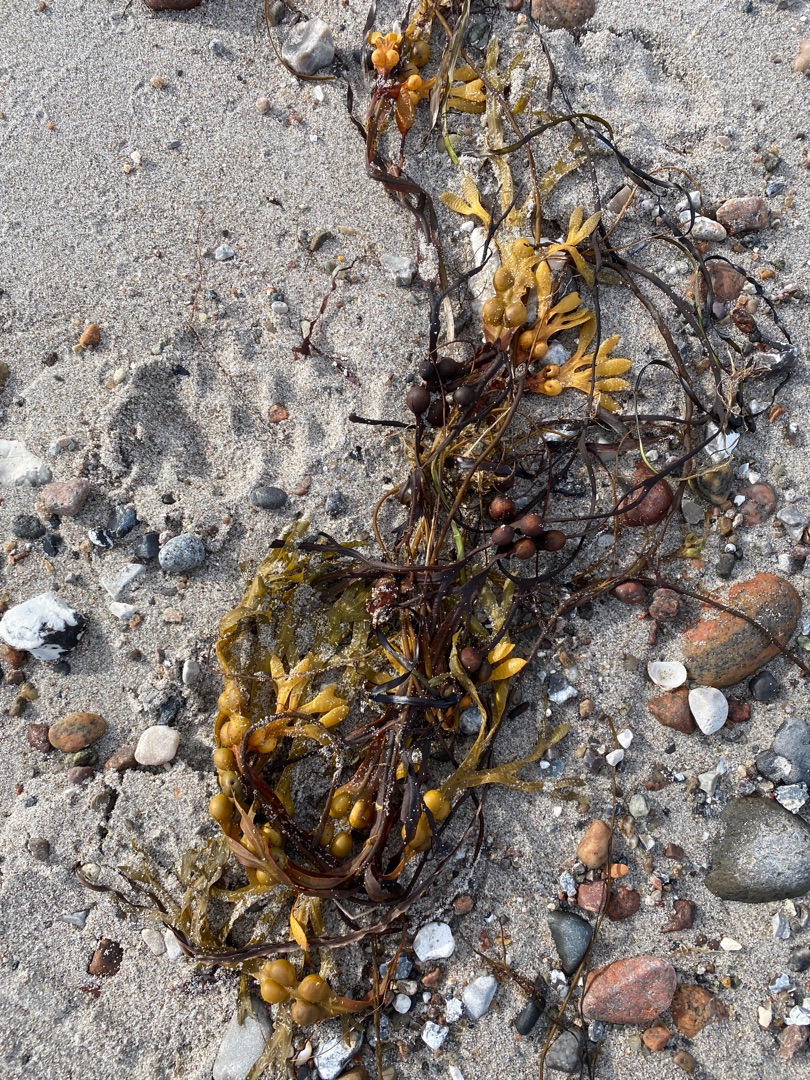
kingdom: Chromista
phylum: Ochrophyta
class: Phaeophyceae
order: Fucales
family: Fucaceae
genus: Fucus
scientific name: Fucus vesiculosus
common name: Blæretang
